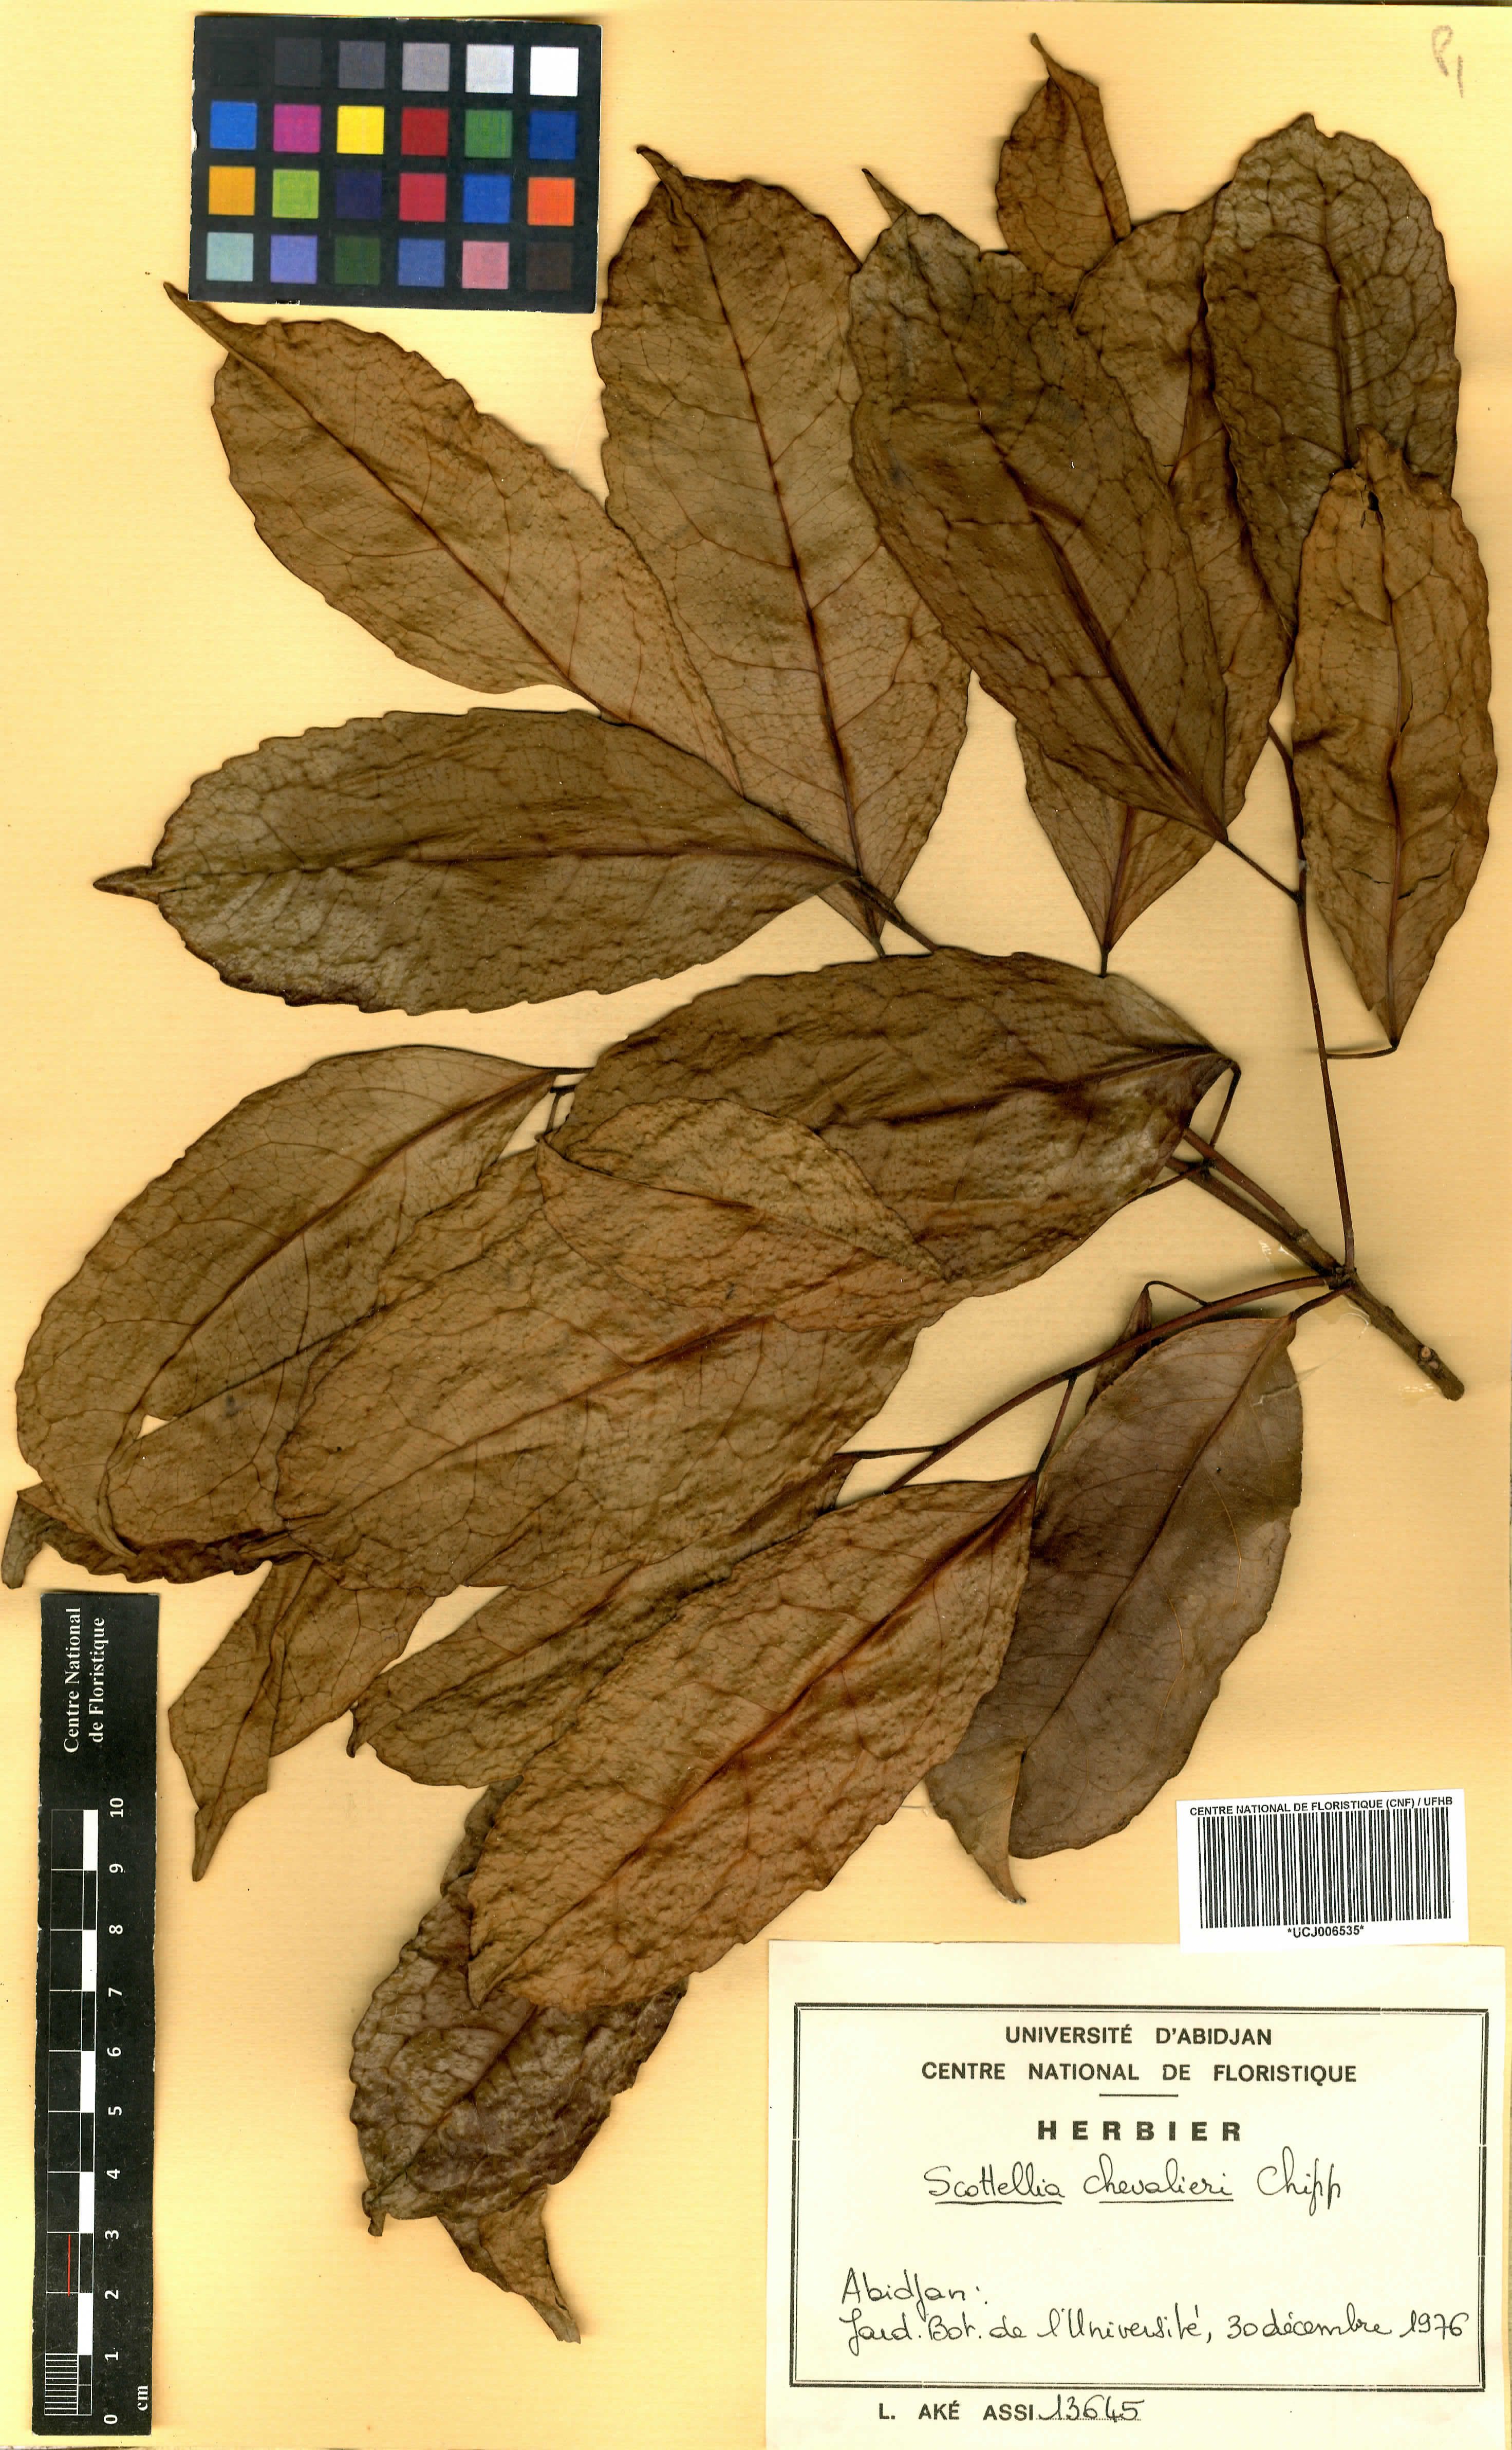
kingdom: Plantae
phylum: Tracheophyta
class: Magnoliopsida
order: Malpighiales
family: Achariaceae
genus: Scottellia
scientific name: Scottellia klaineana
